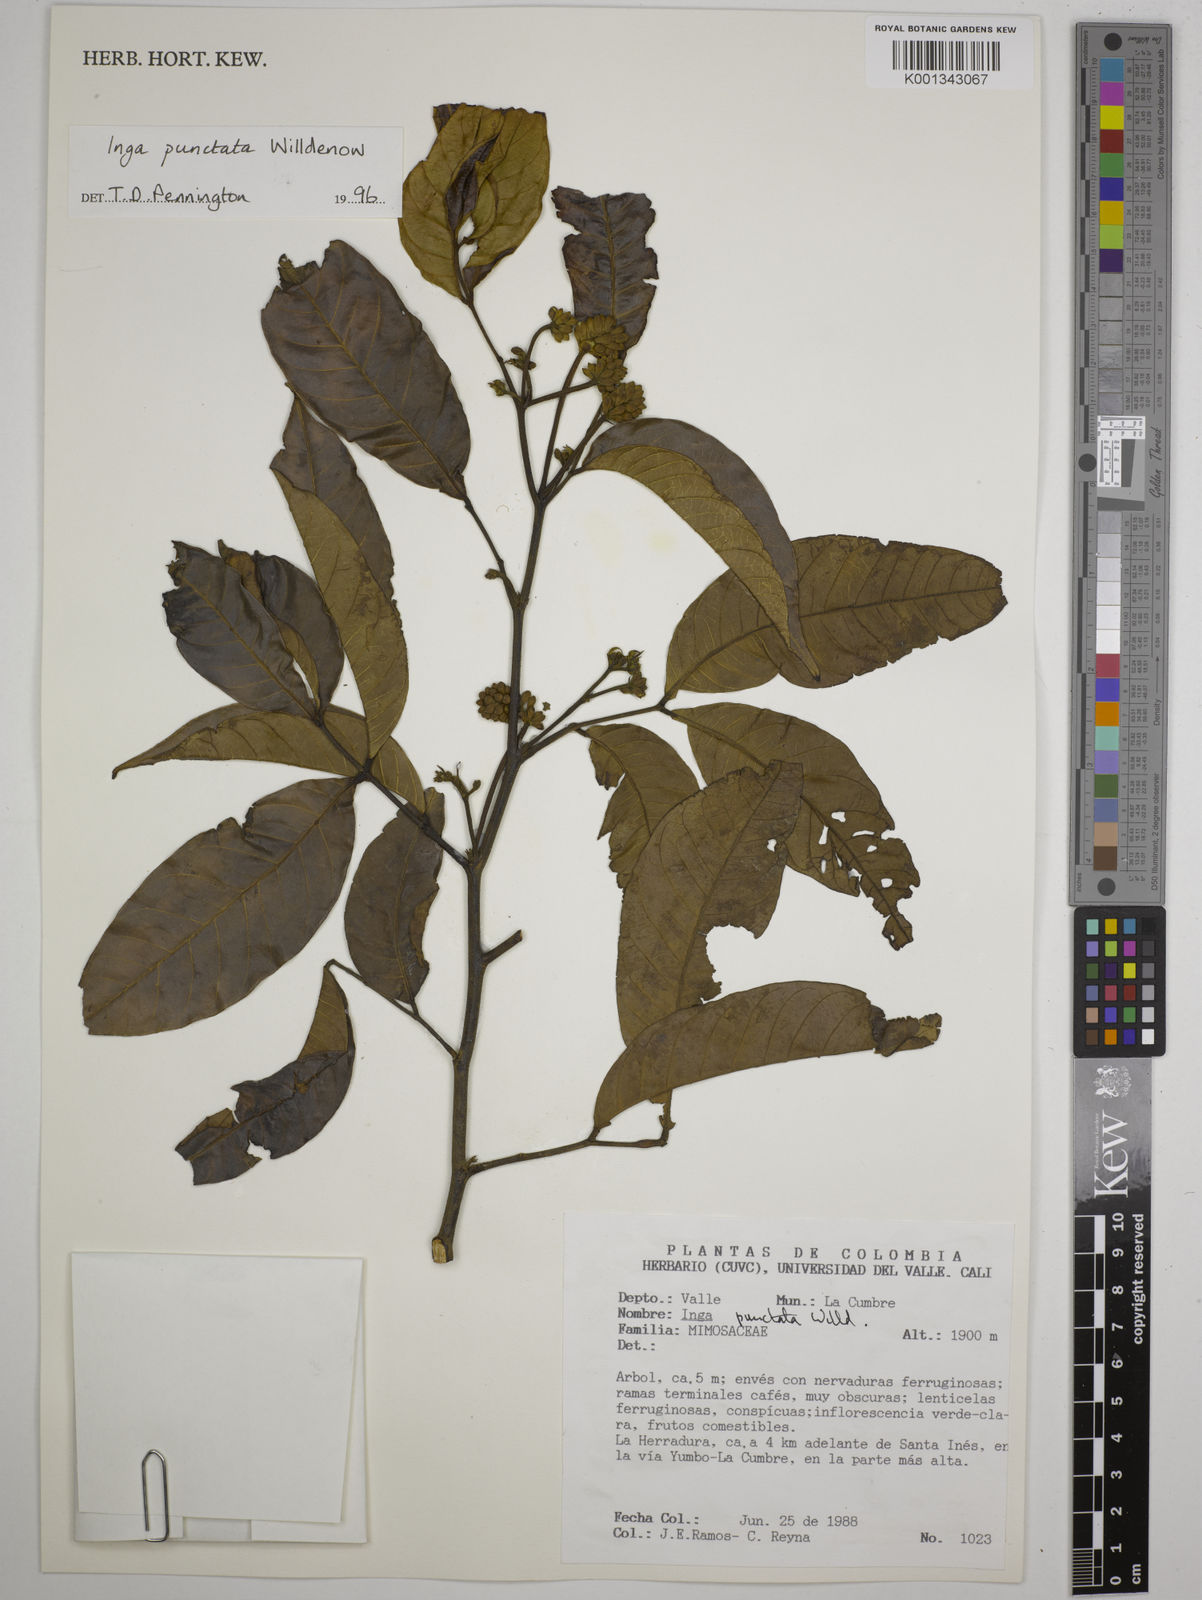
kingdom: Plantae
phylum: Tracheophyta
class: Magnoliopsida
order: Fabales
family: Fabaceae
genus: Inga
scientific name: Inga punctata
